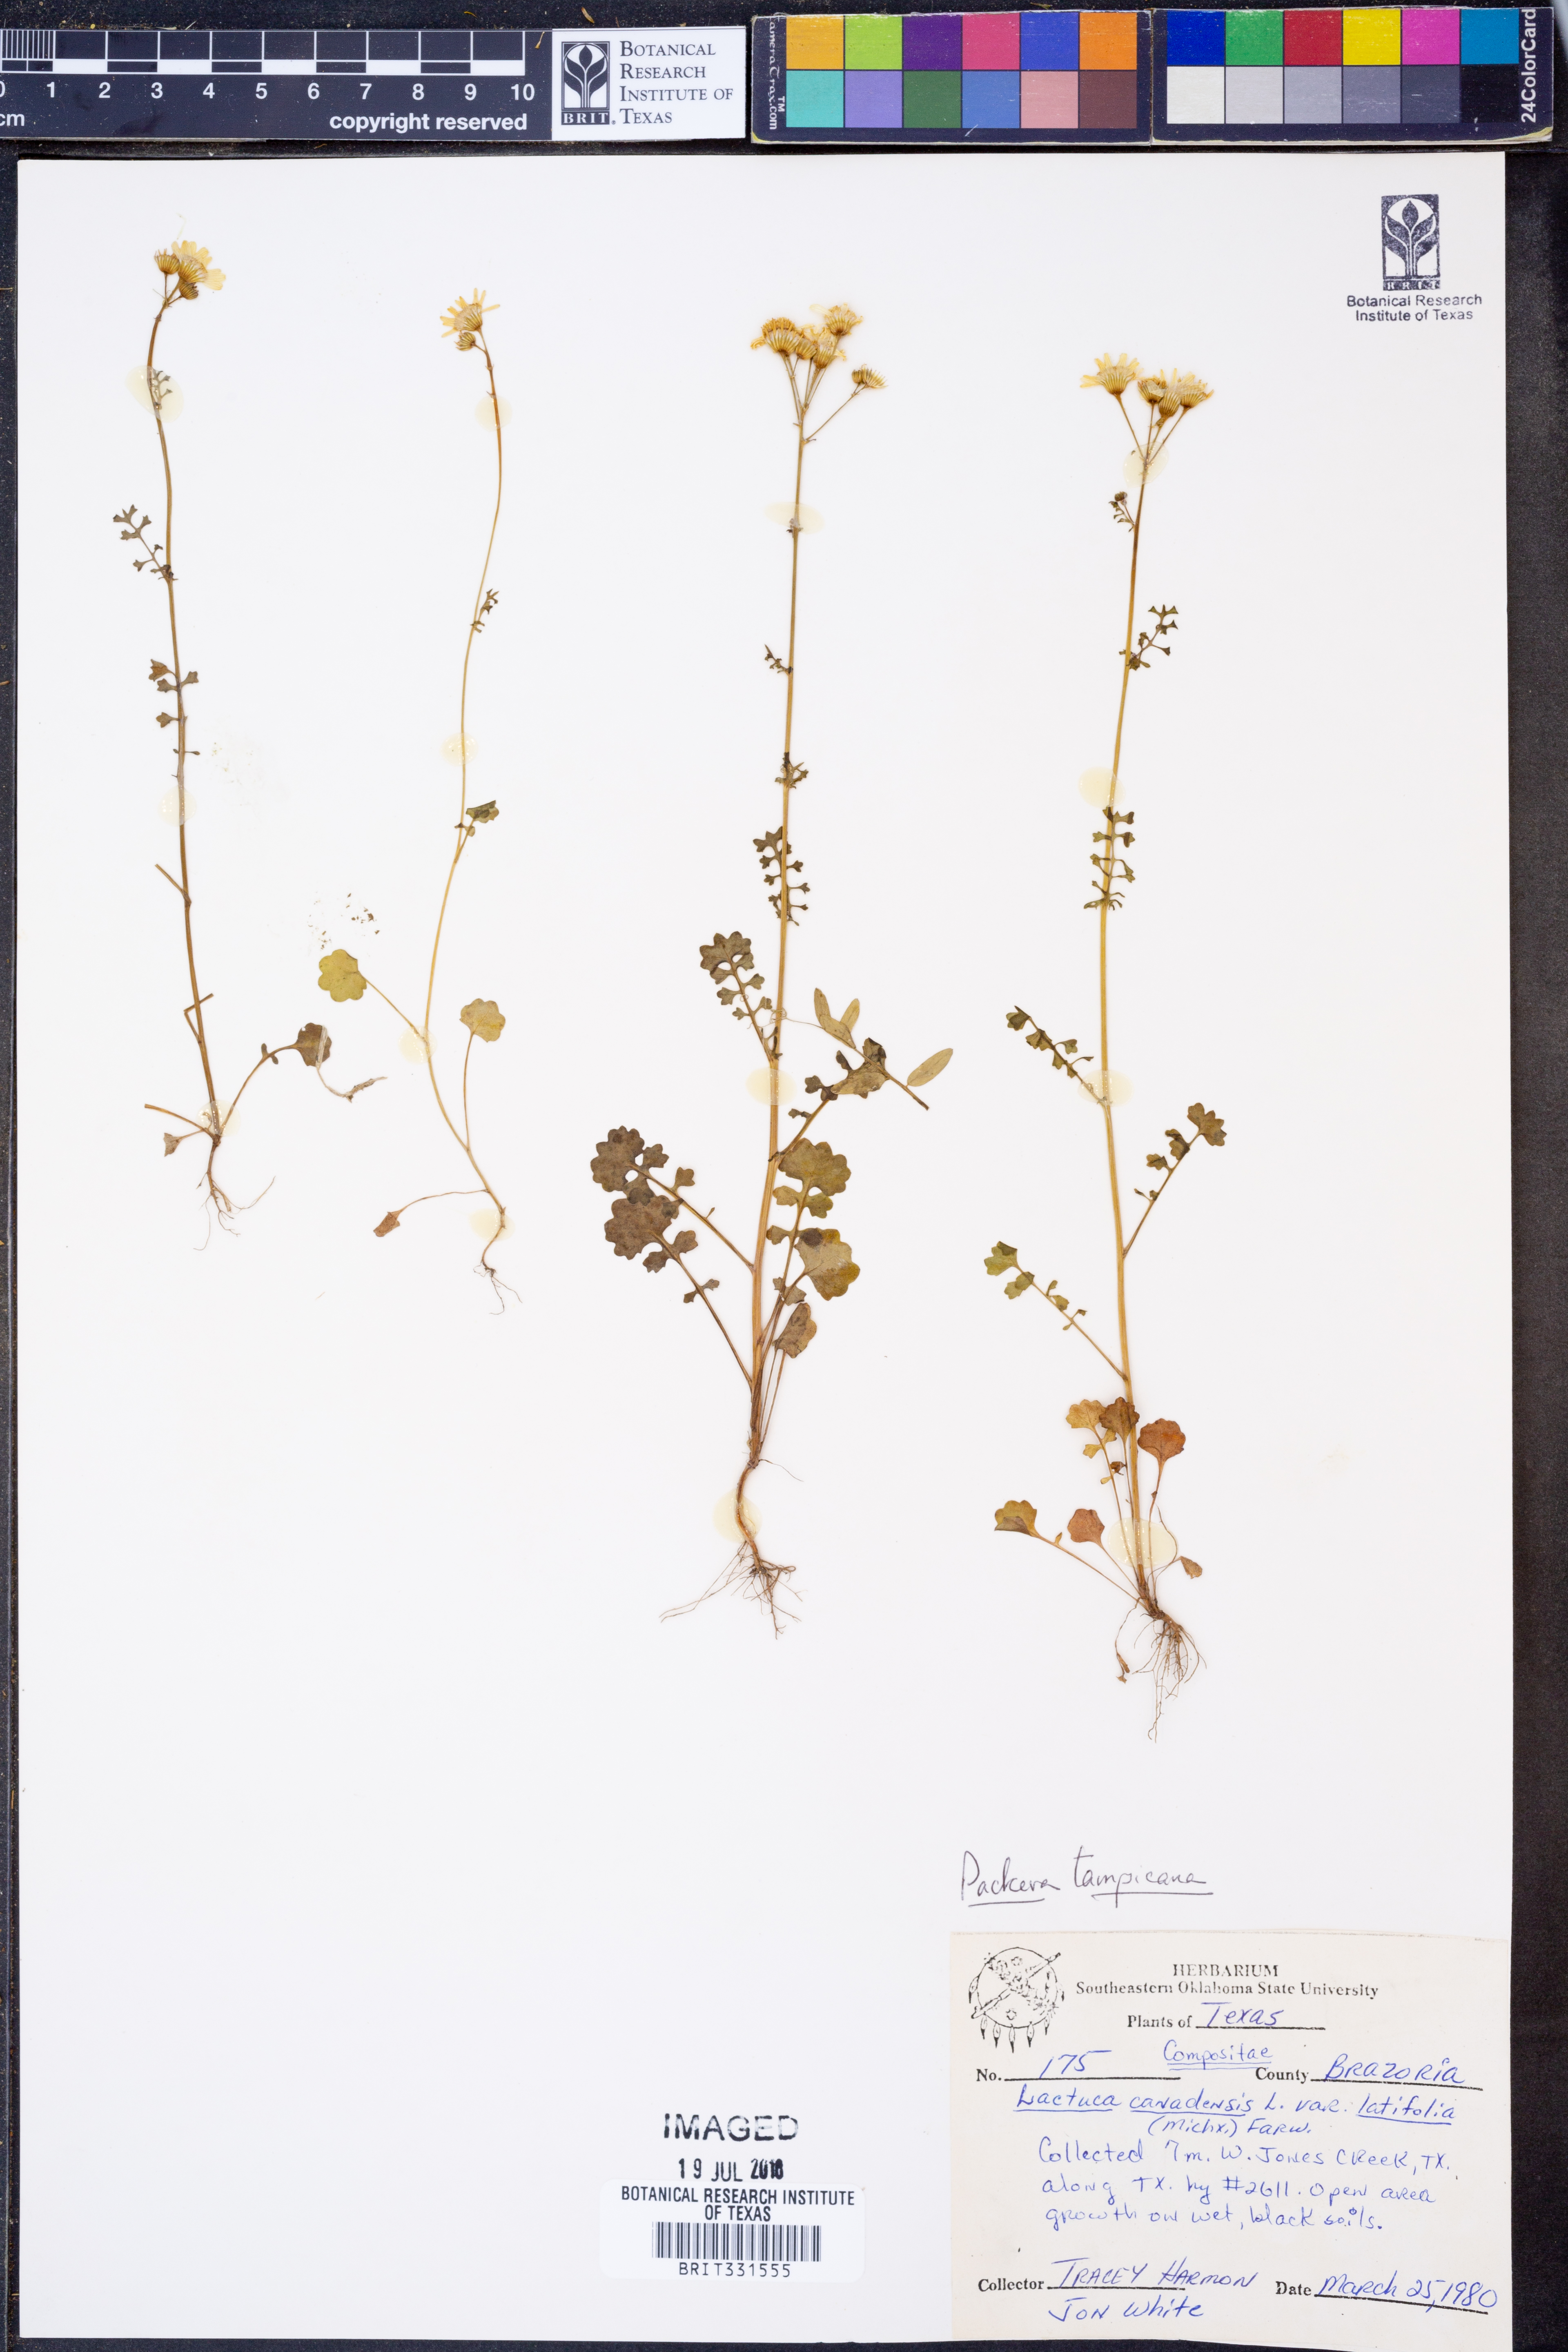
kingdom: Plantae
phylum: Tracheophyta
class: Magnoliopsida
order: Asterales
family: Asteraceae
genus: Packera
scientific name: Packera tampicana
